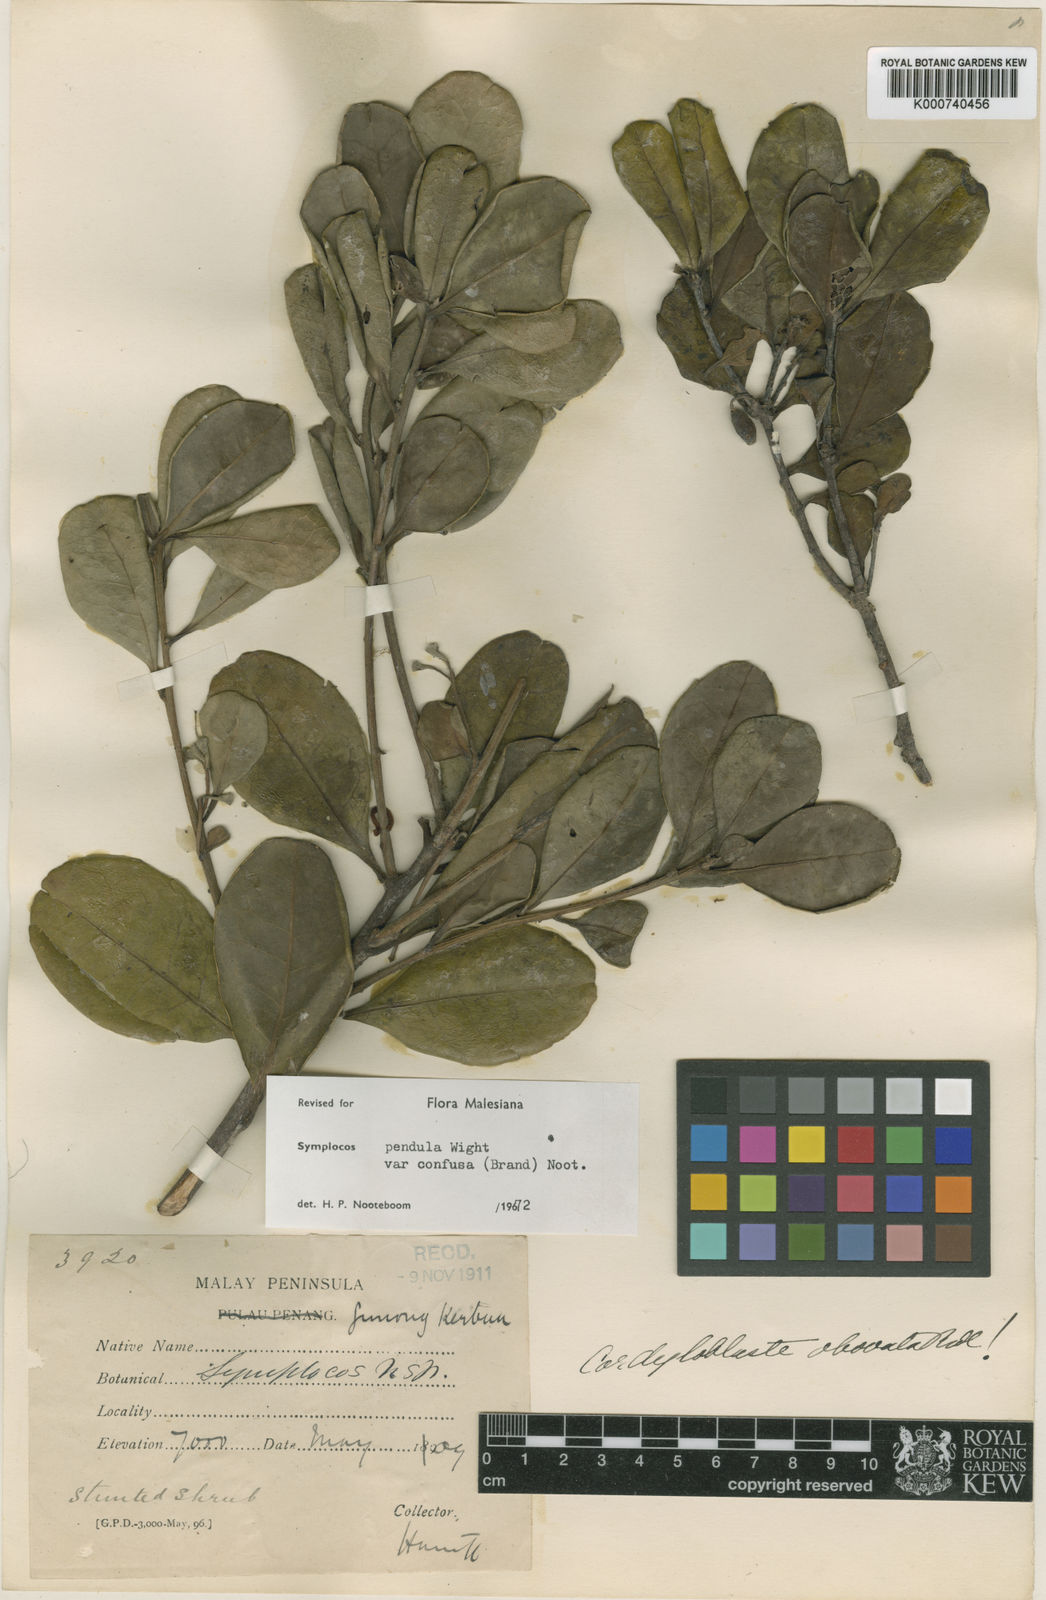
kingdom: Plantae
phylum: Tracheophyta
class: Magnoliopsida
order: Ericales
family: Symplocaceae
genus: Symplocos
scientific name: Symplocos pendula
